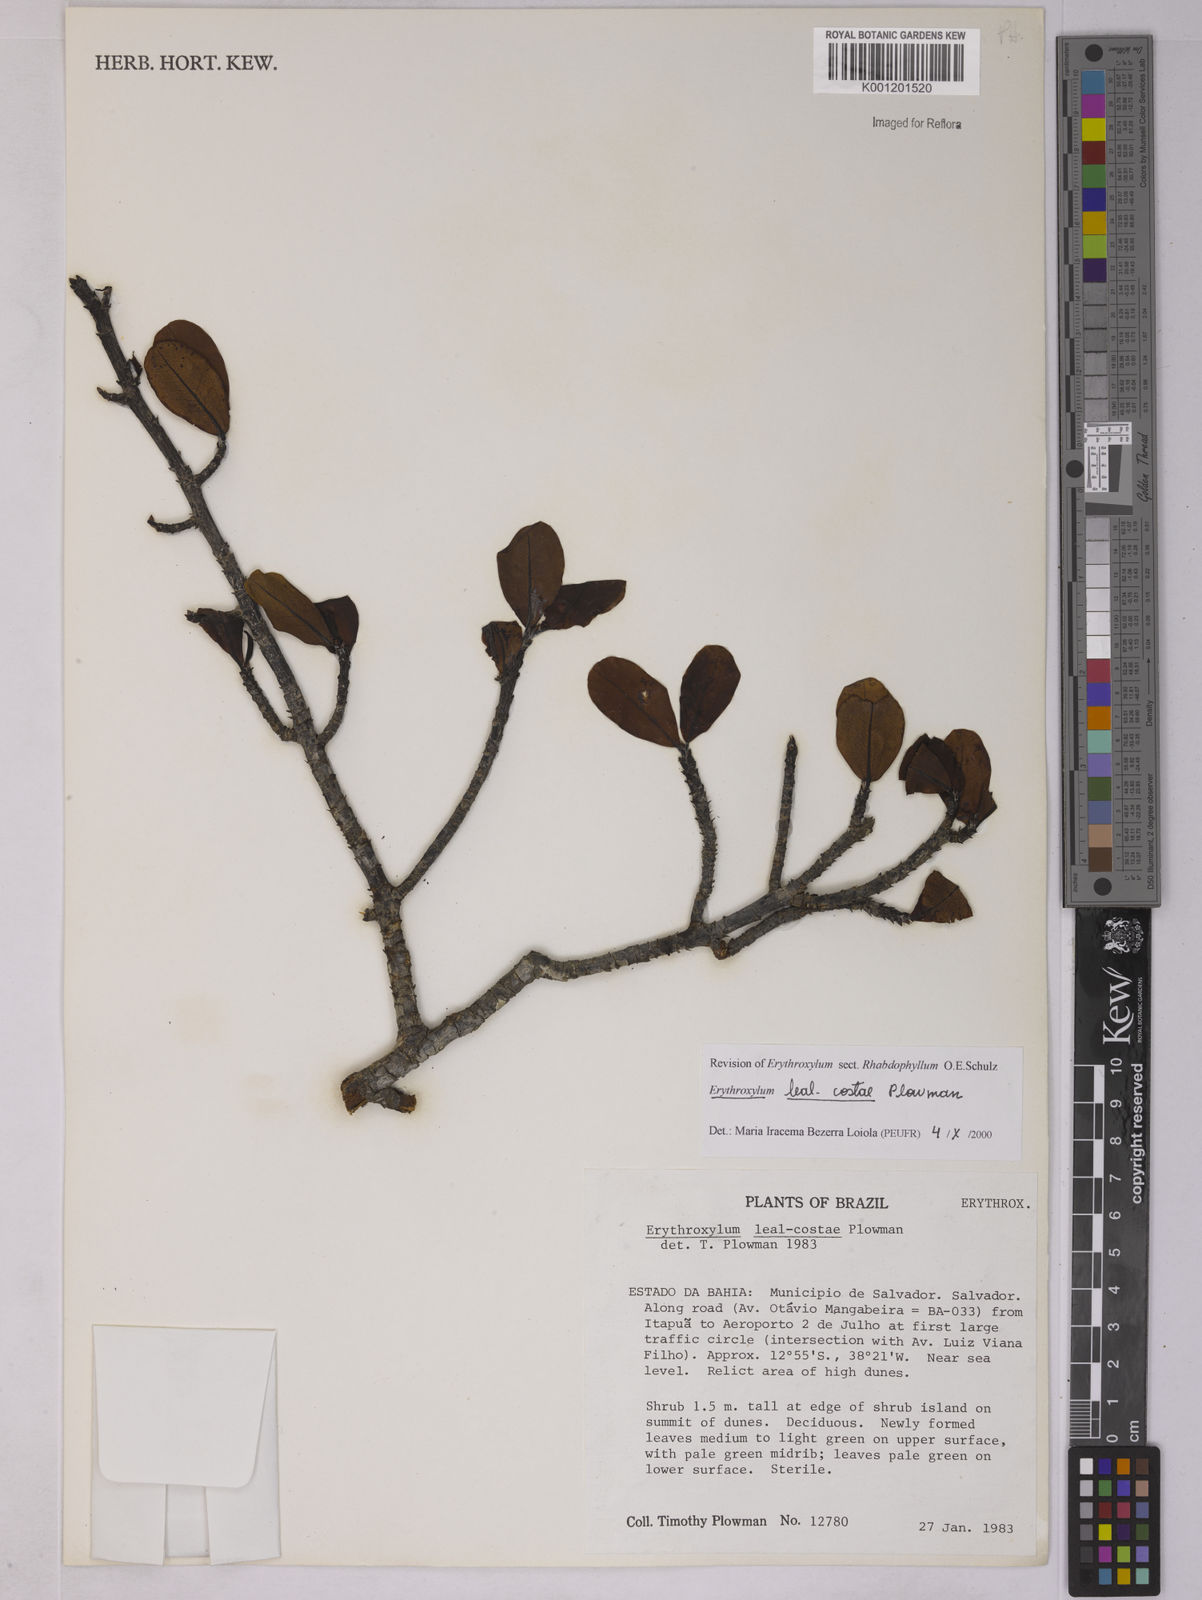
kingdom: Plantae
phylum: Tracheophyta
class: Magnoliopsida
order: Malpighiales
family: Erythroxylaceae
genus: Erythroxylum
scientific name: Erythroxylum leal-costae
